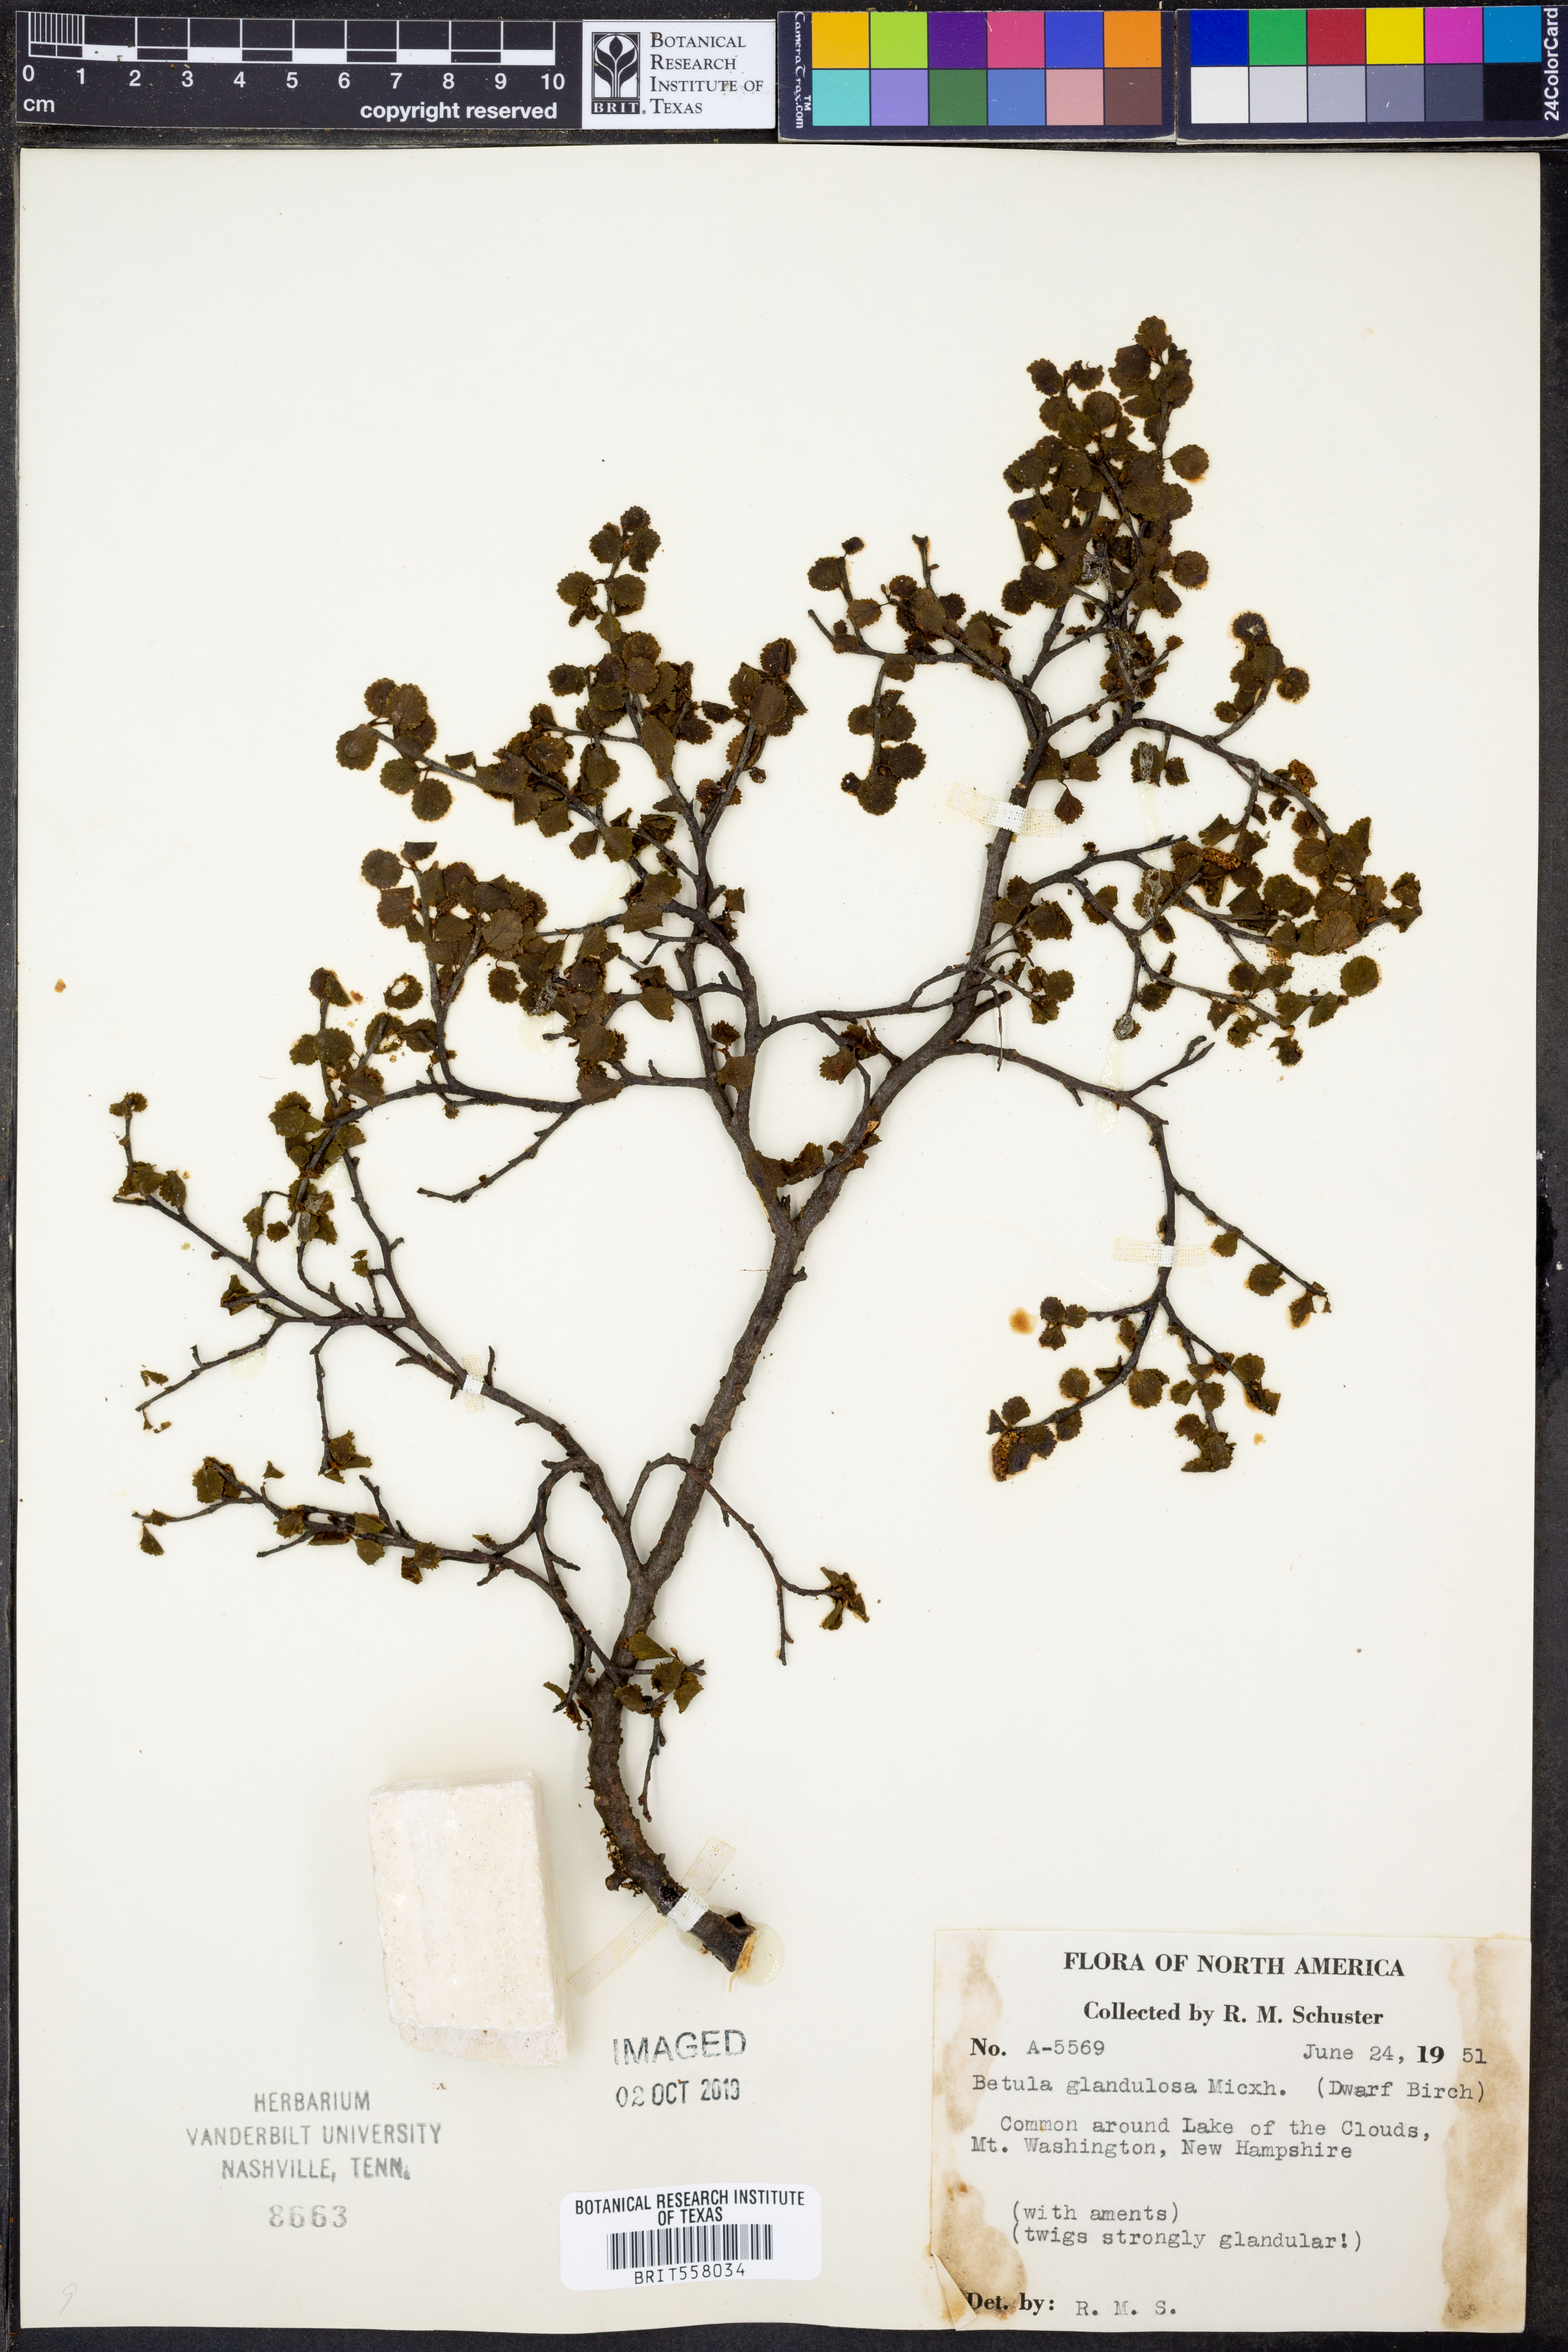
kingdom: Plantae
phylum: Tracheophyta
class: Magnoliopsida
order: Fagales
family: Betulaceae
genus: Betula
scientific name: Betula glandulosa
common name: Dwarf birch
